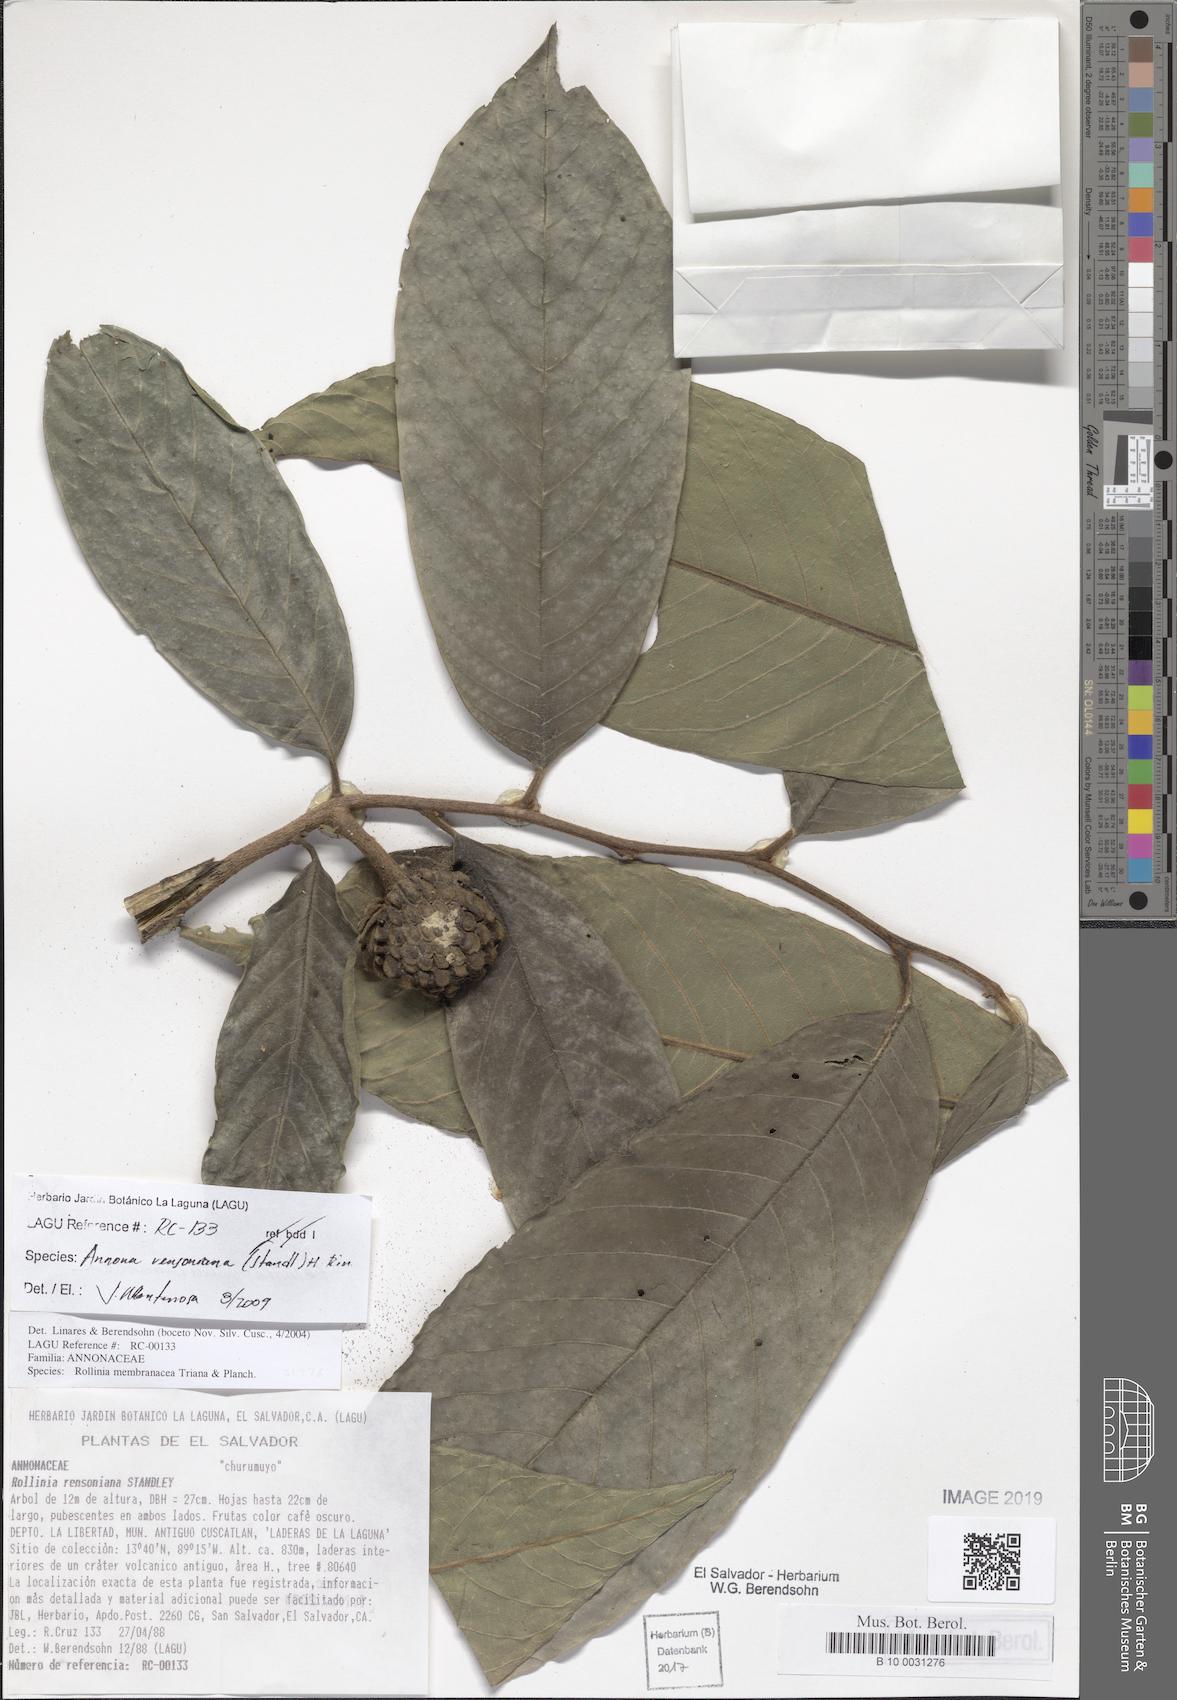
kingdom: Plantae
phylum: Tracheophyta
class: Magnoliopsida
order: Magnoliales
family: Annonaceae
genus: Annona
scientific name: Annona rensoniana
